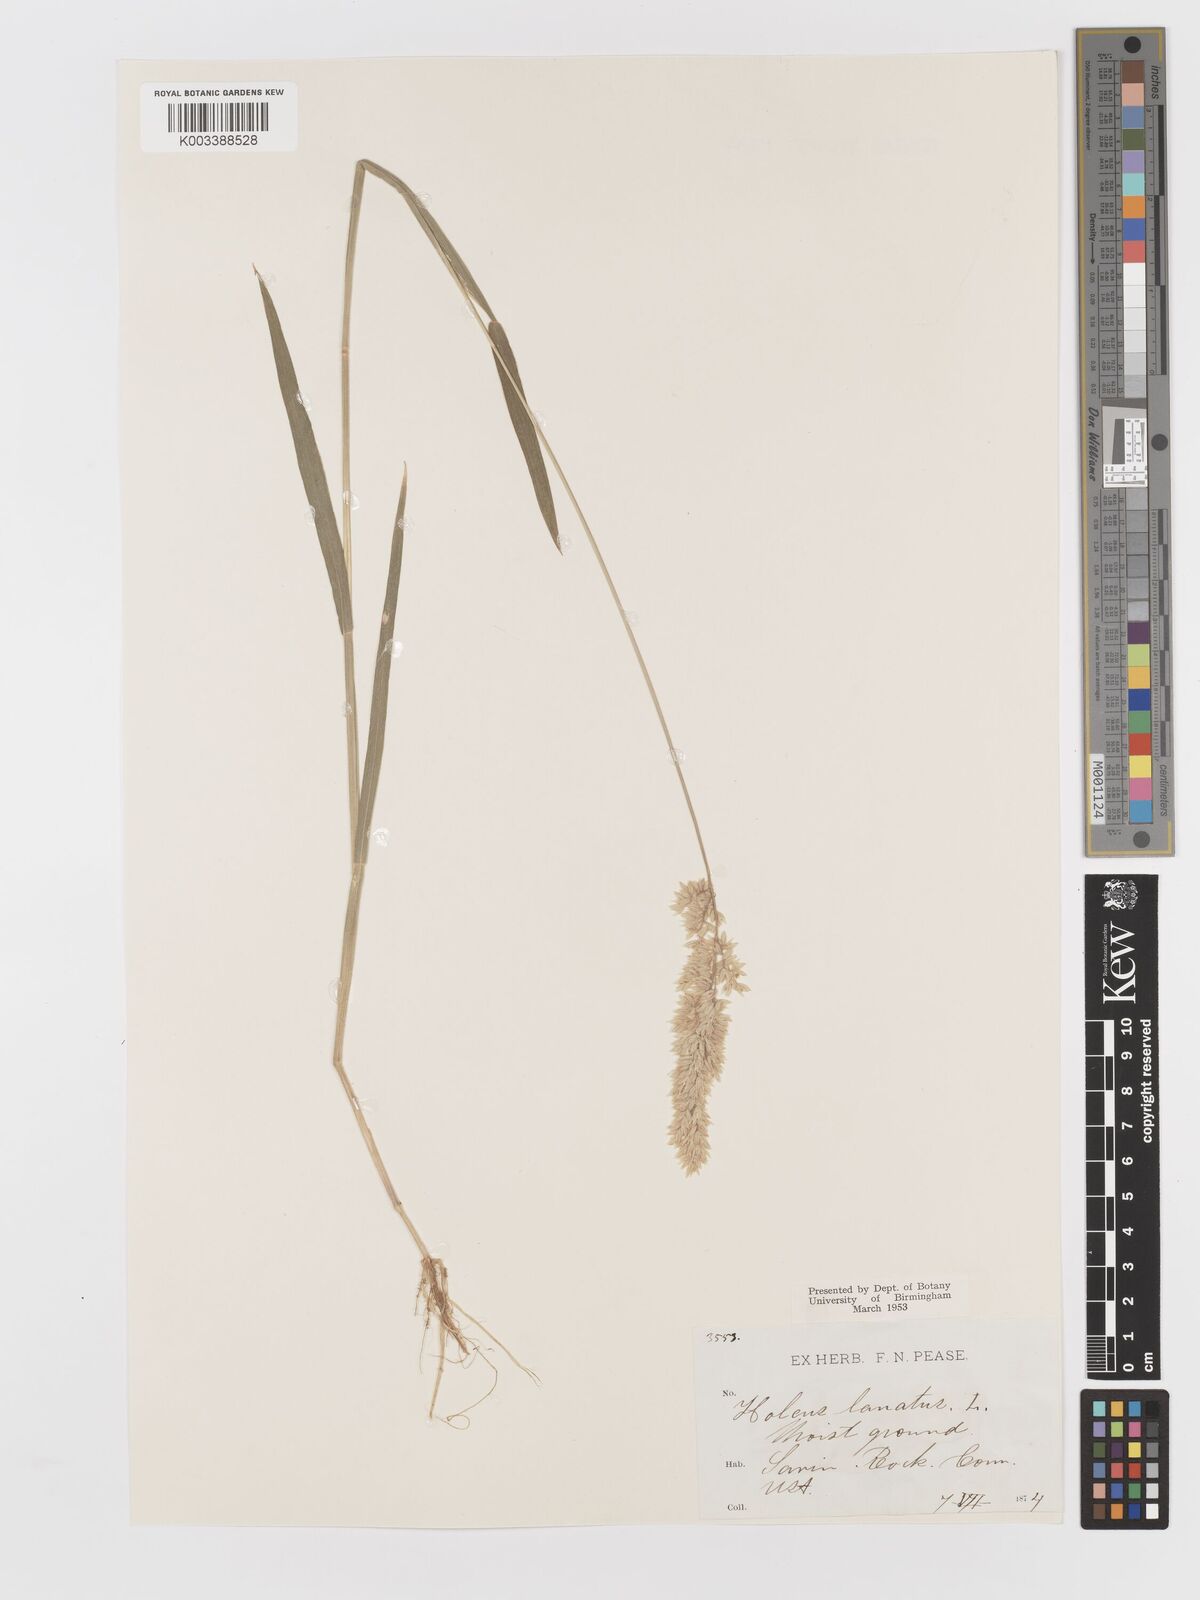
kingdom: Plantae
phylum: Tracheophyta
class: Liliopsida
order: Poales
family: Poaceae
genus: Holcus
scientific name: Holcus lanatus
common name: Yorkshire-fog
